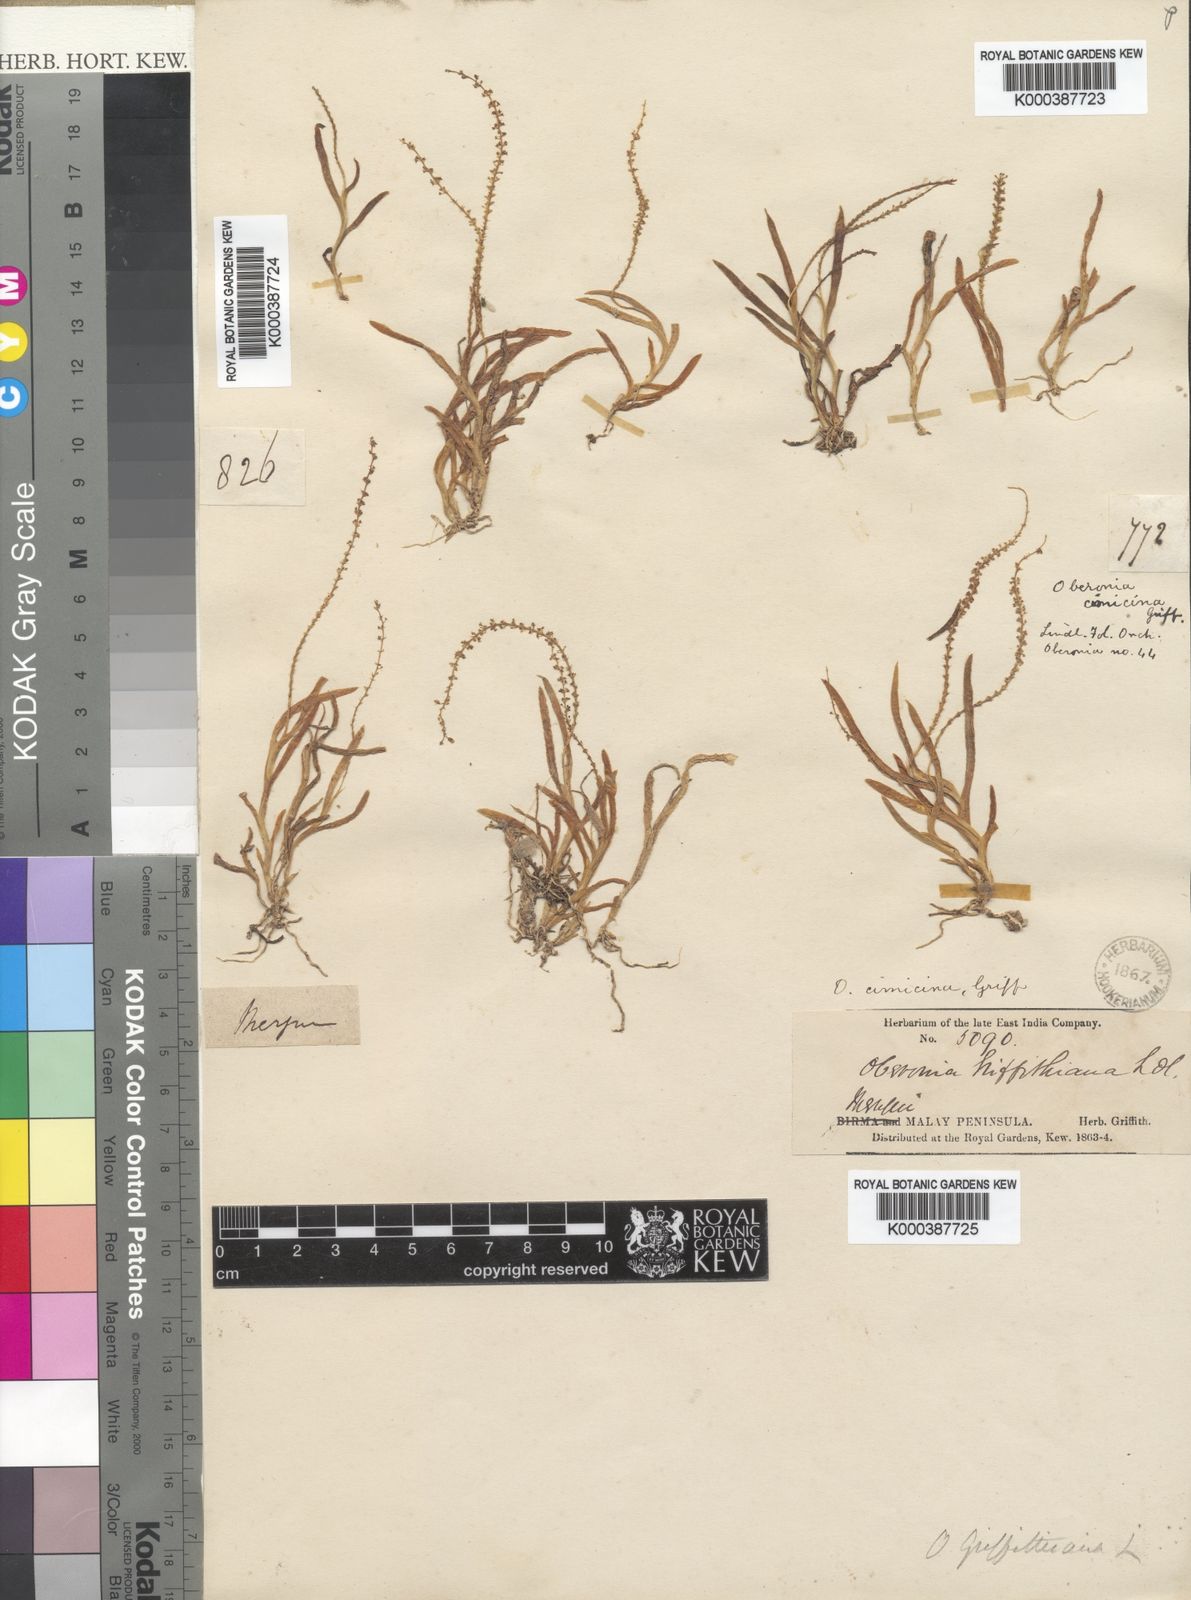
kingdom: Plantae
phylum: Tracheophyta
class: Liliopsida
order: Asparagales
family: Orchidaceae
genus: Oberonia
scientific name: Oberonia griffithiana
